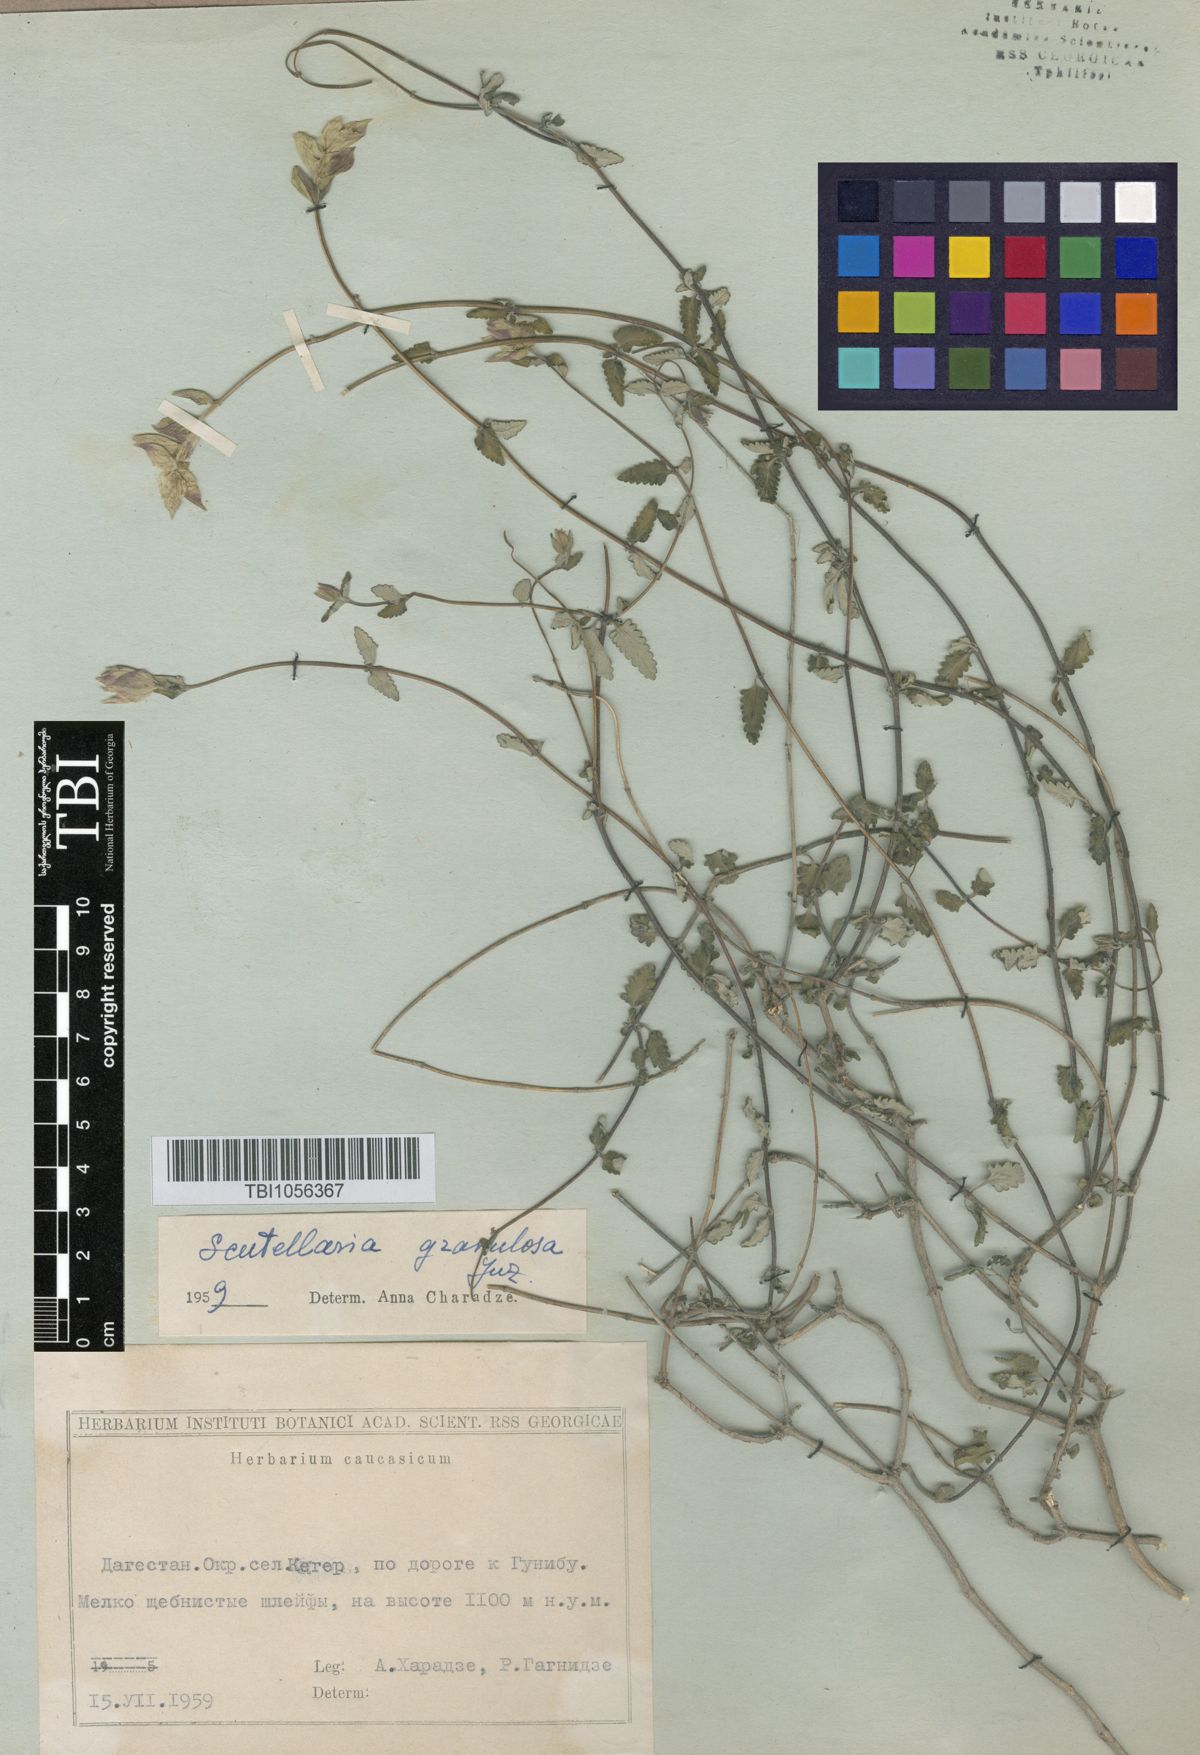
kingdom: Plantae
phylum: Tracheophyta
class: Magnoliopsida
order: Lamiales
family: Lamiaceae
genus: Scutellaria
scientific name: Scutellaria granulosa
